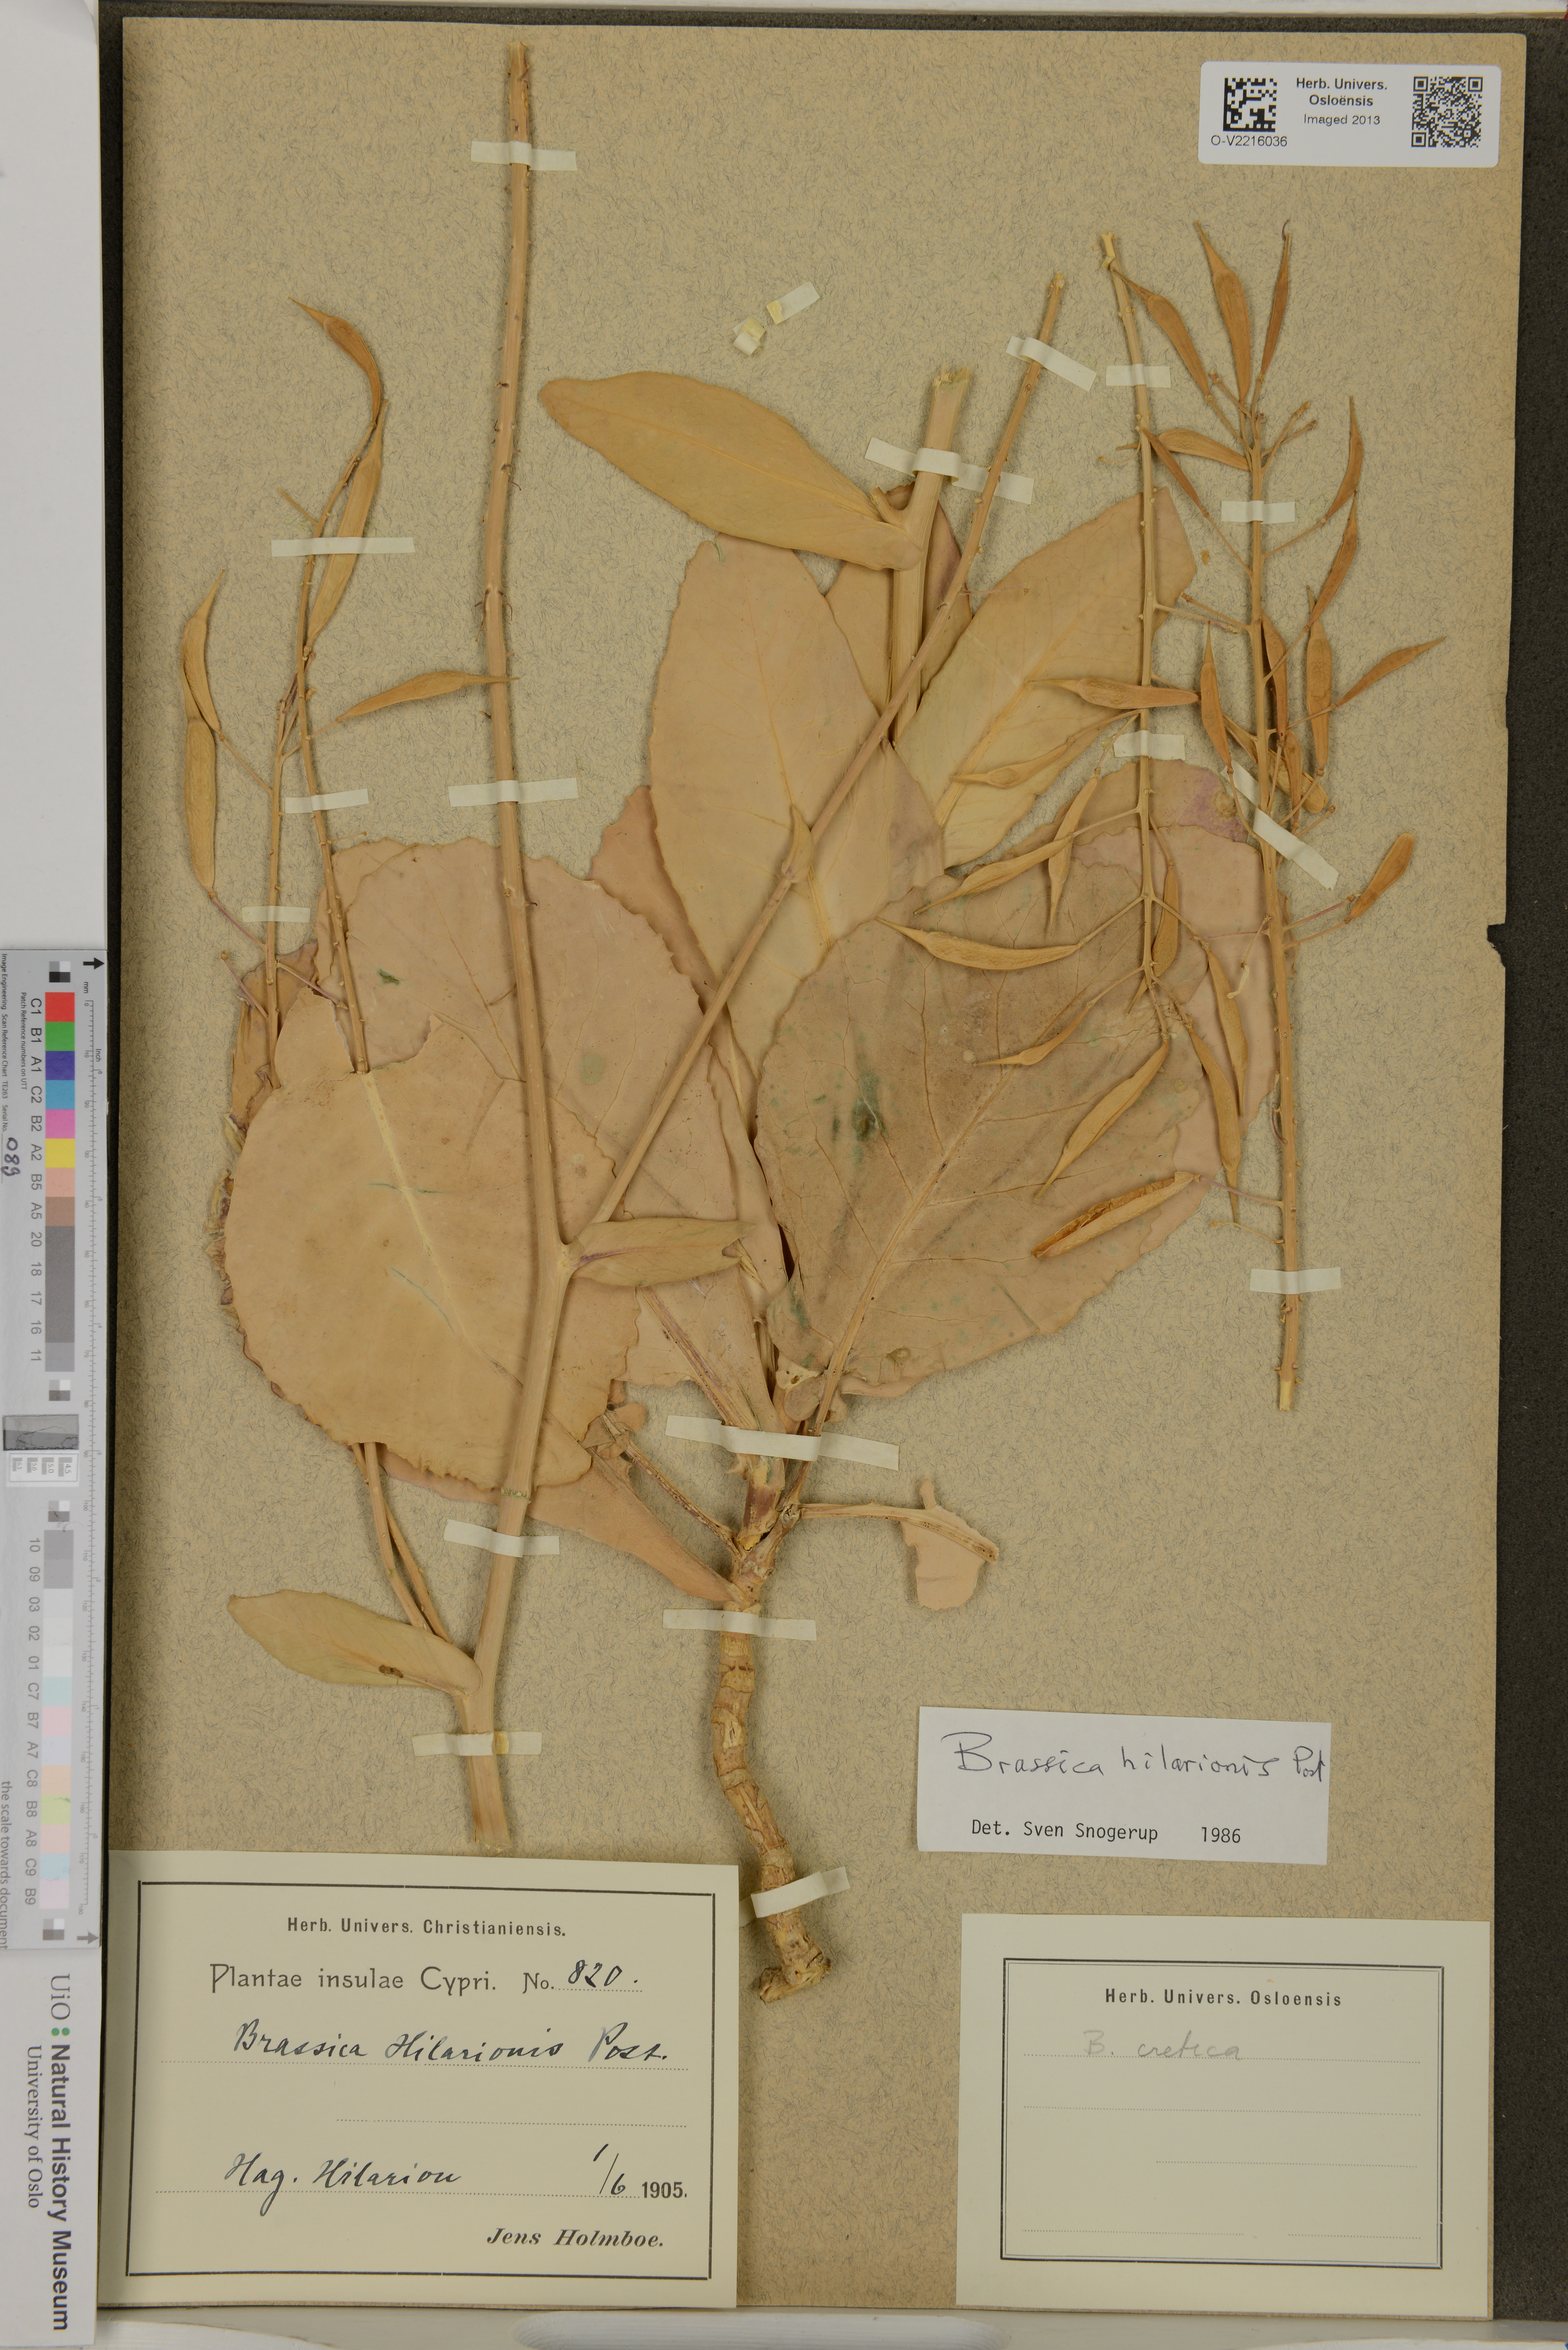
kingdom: Plantae
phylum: Tracheophyta
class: Magnoliopsida
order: Brassicales
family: Brassicaceae
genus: Brassica
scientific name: Brassica hilarionis
